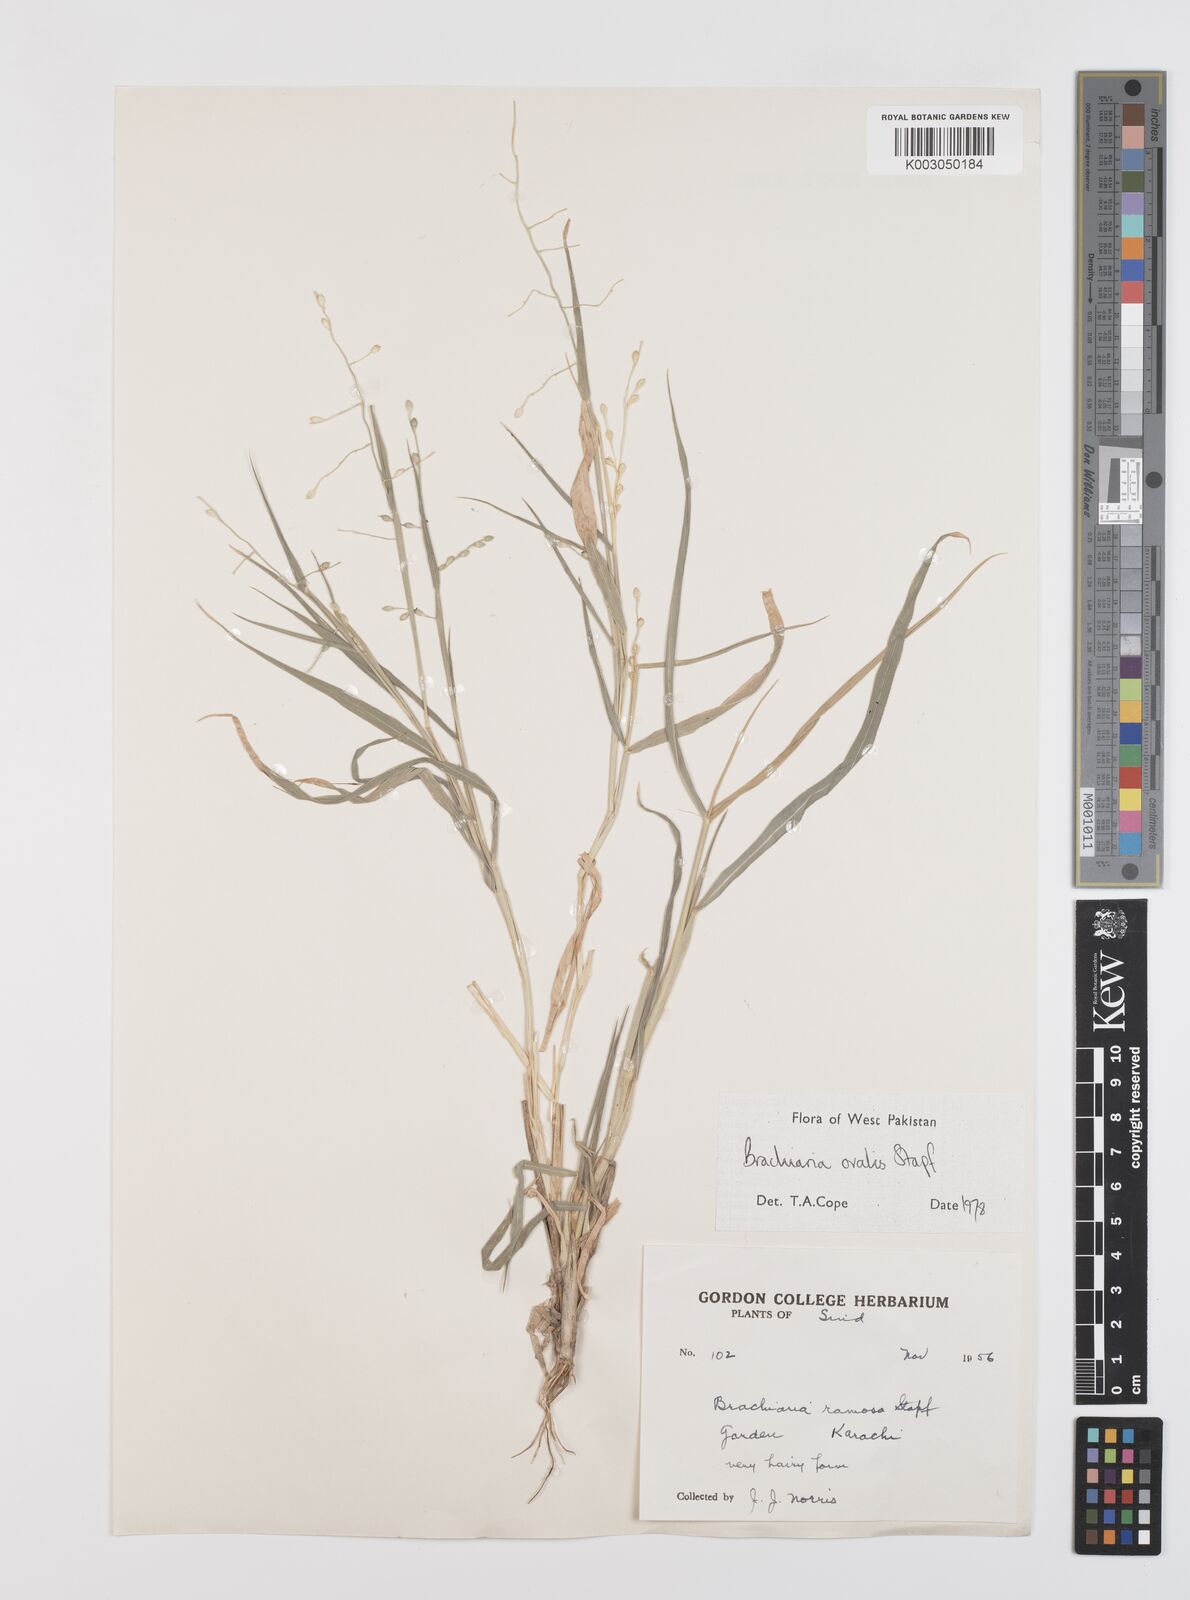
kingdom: Plantae
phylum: Tracheophyta
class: Liliopsida
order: Poales
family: Poaceae
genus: Urochloa
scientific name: Urochloa ovalis
